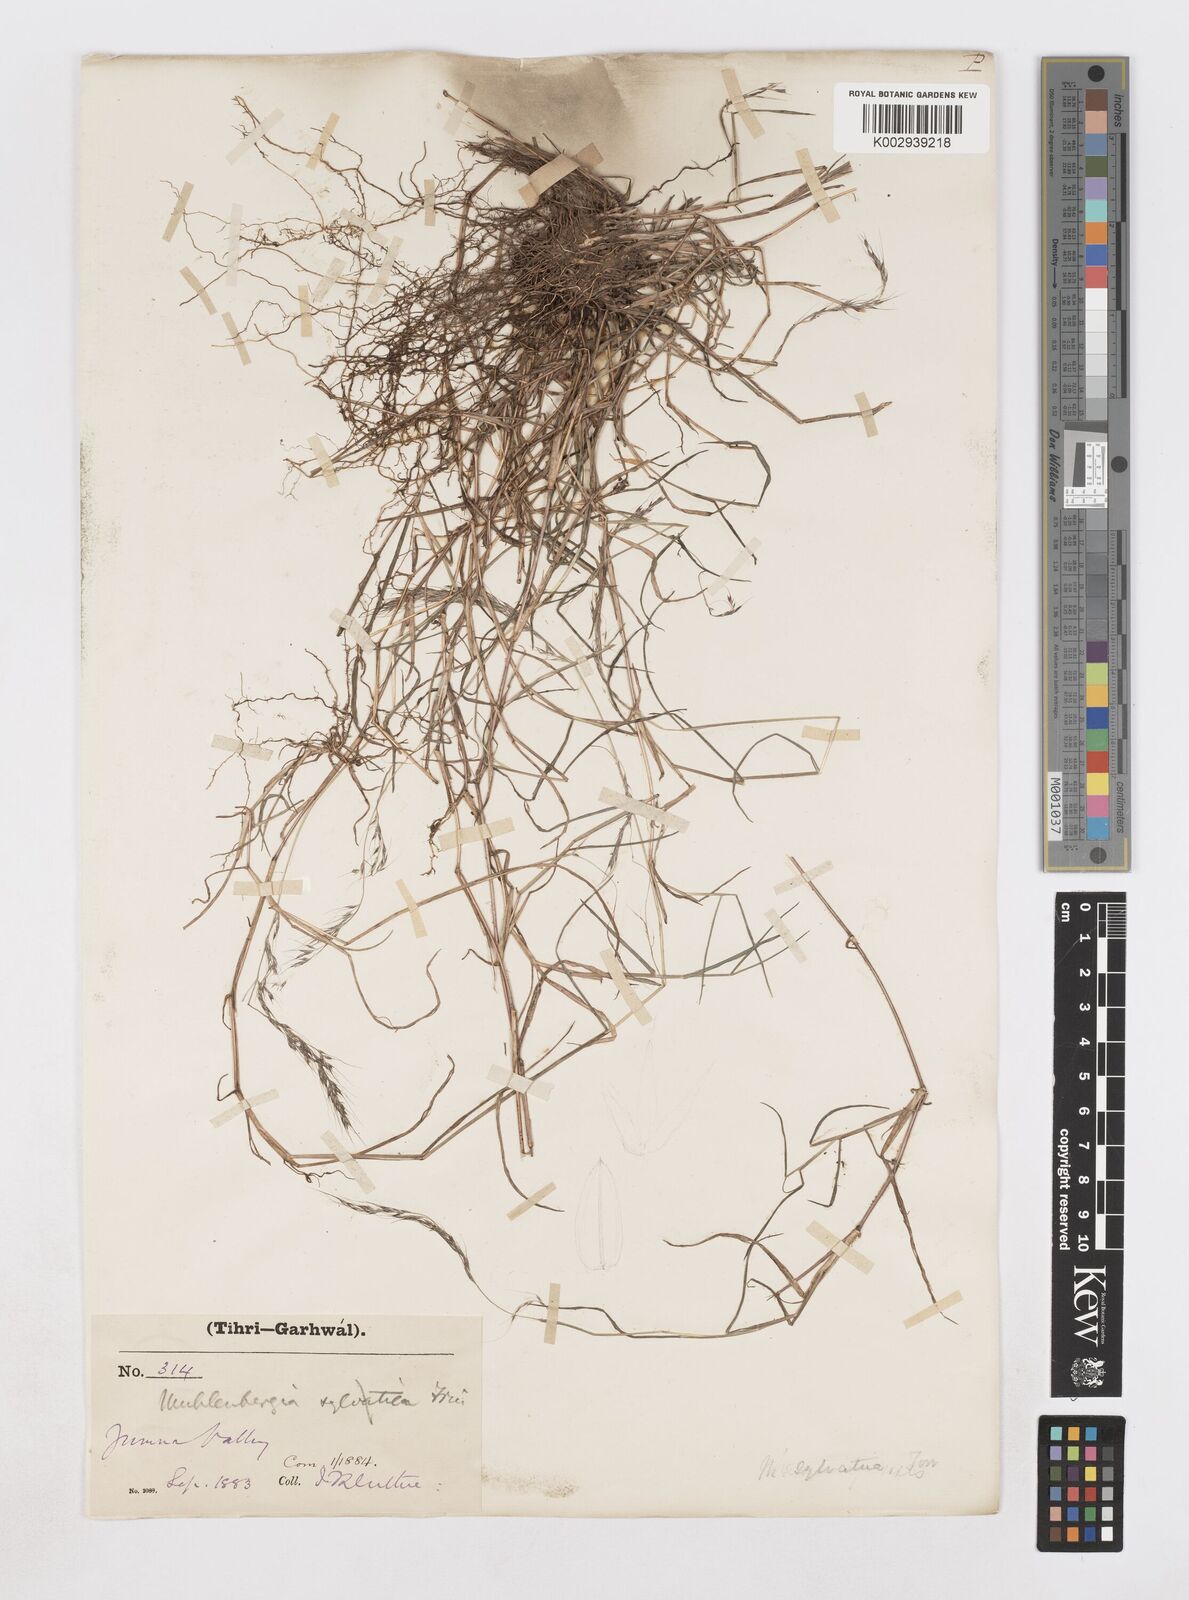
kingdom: Plantae
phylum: Tracheophyta
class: Liliopsida
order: Poales
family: Poaceae
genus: Muhlenbergia
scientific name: Muhlenbergia himalayensis
